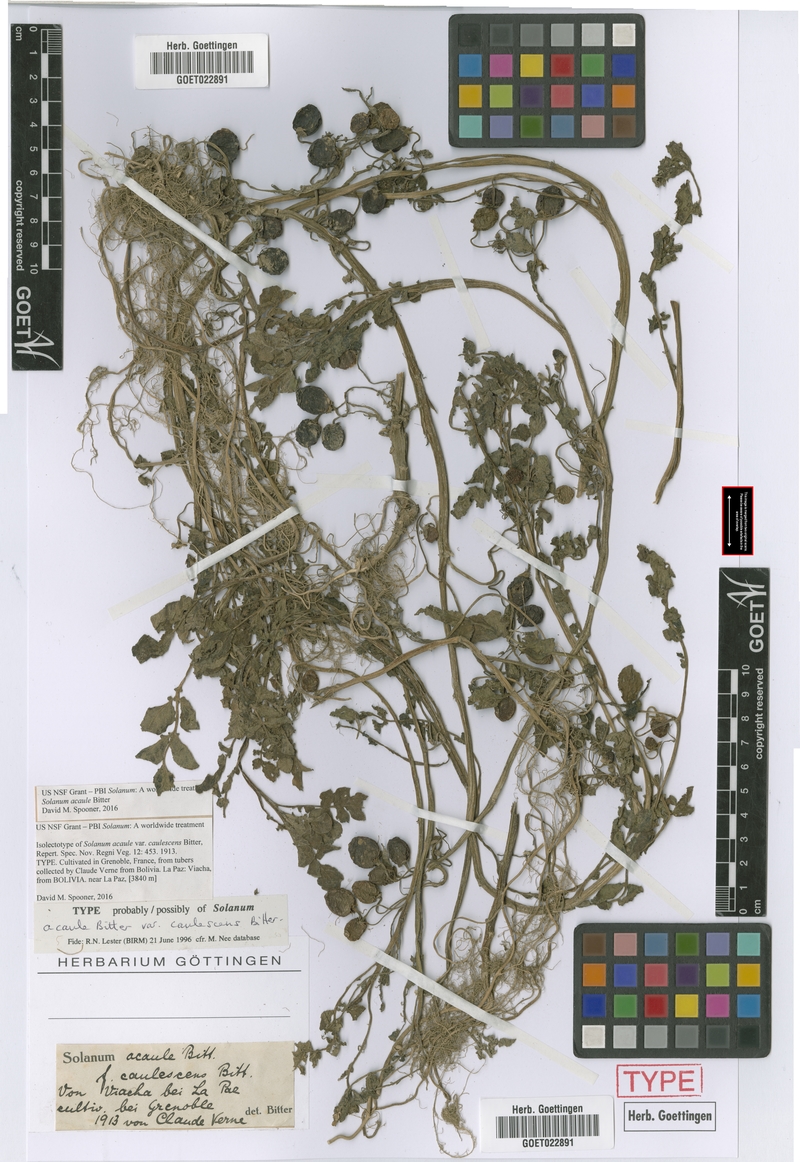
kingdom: Plantae
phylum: Tracheophyta
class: Magnoliopsida
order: Solanales
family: Solanaceae
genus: Solanum
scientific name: Solanum acaule
